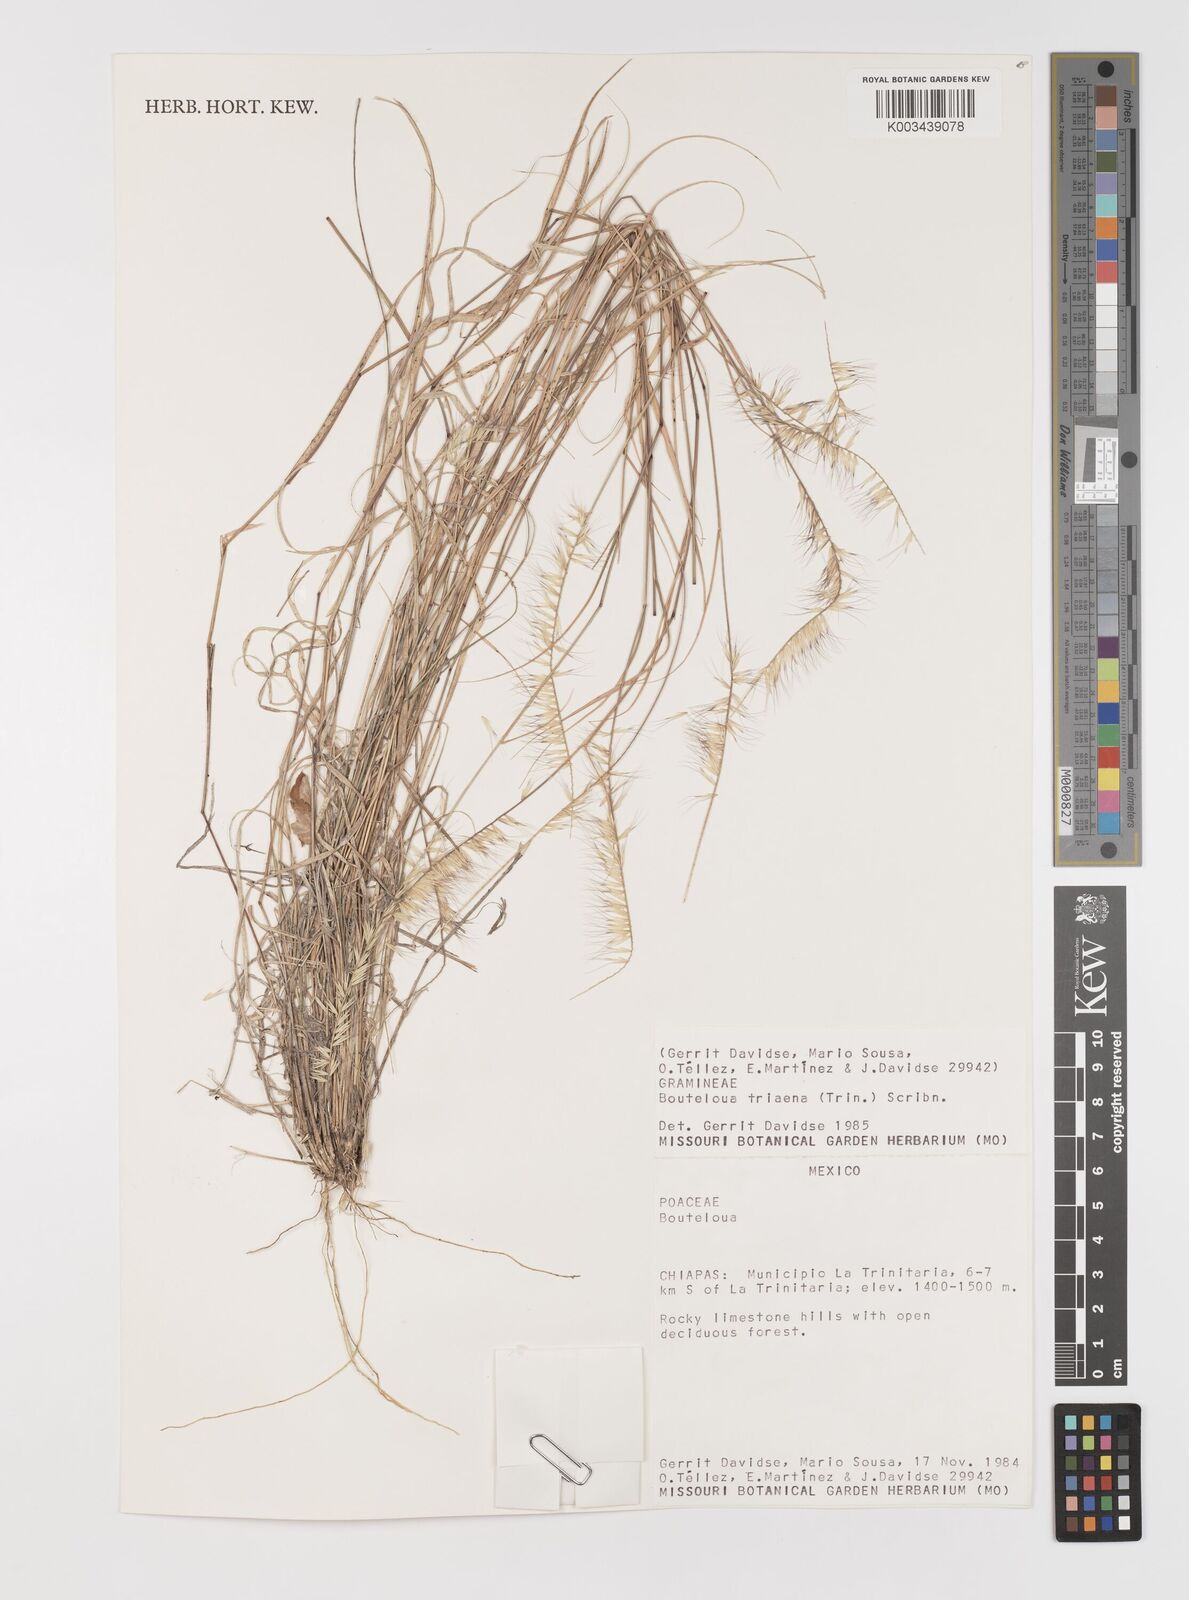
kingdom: Plantae
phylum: Tracheophyta
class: Liliopsida
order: Poales
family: Poaceae
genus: Bouteloua
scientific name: Bouteloua triaena
